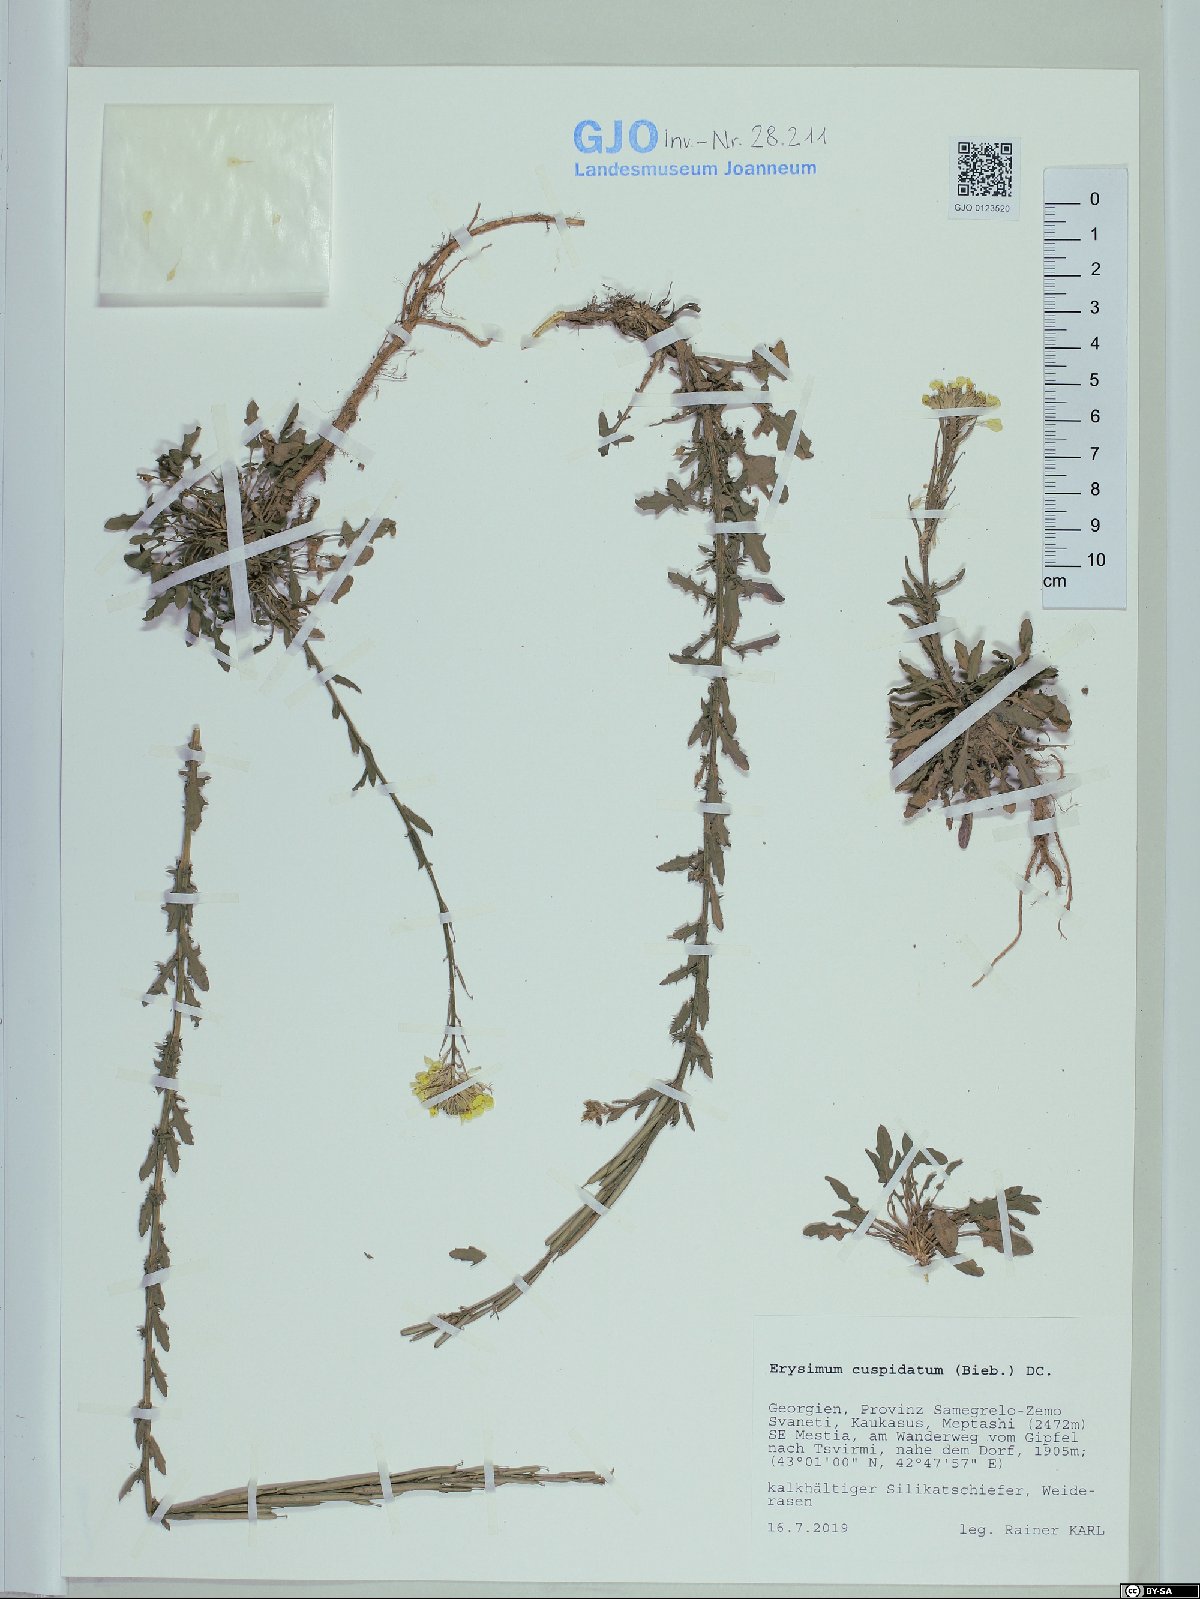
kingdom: Plantae
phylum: Tracheophyta
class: Magnoliopsida
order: Brassicales
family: Brassicaceae
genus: Erysimum
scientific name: Erysimum cuspidatum
